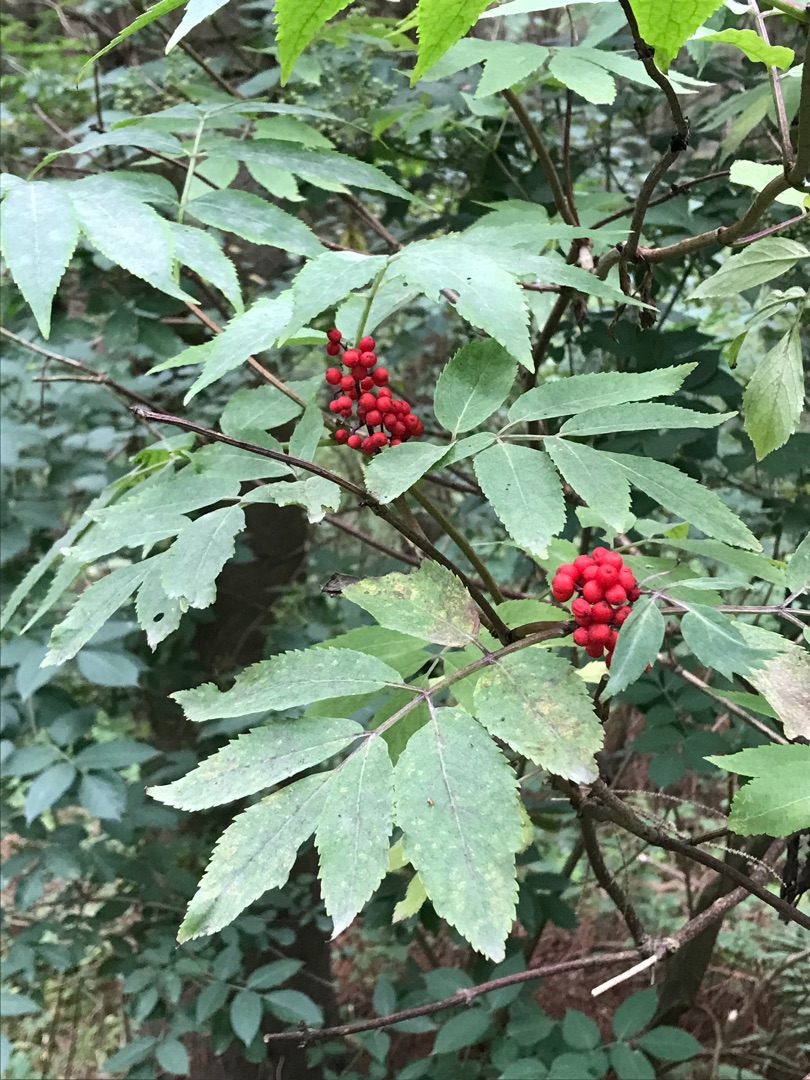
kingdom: Plantae
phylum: Tracheophyta
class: Magnoliopsida
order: Dipsacales
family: Viburnaceae
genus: Sambucus
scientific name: Sambucus racemosa
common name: Drue-hyld
